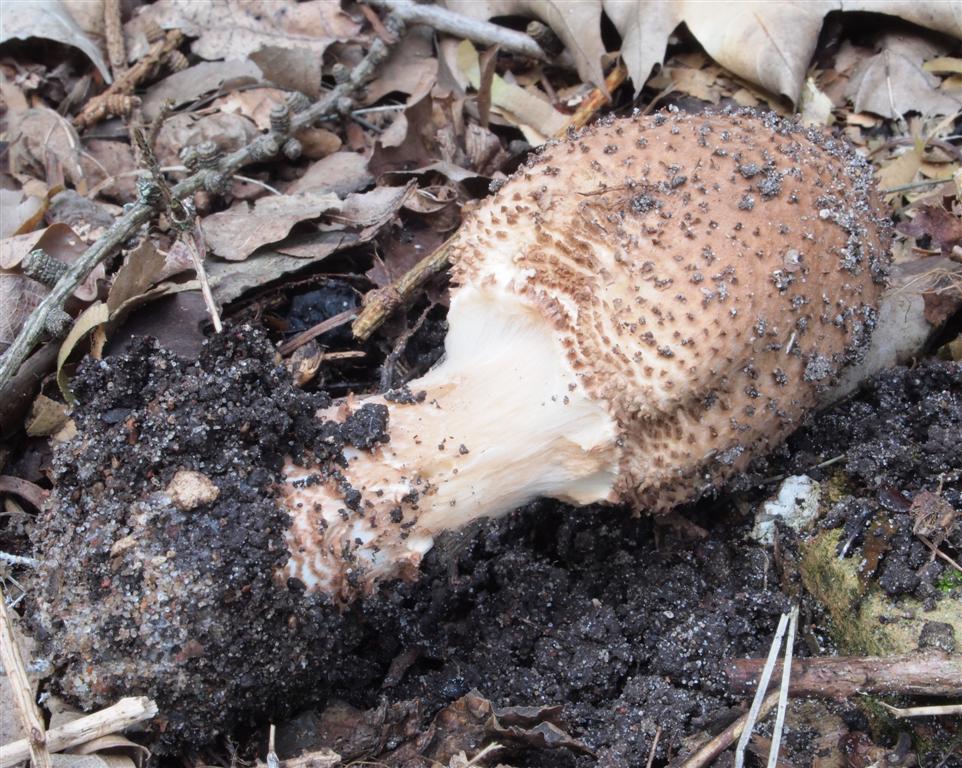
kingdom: Fungi
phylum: Basidiomycota
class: Agaricomycetes
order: Agaricales
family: Agaricaceae
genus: Echinoderma
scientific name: Echinoderma asperum
